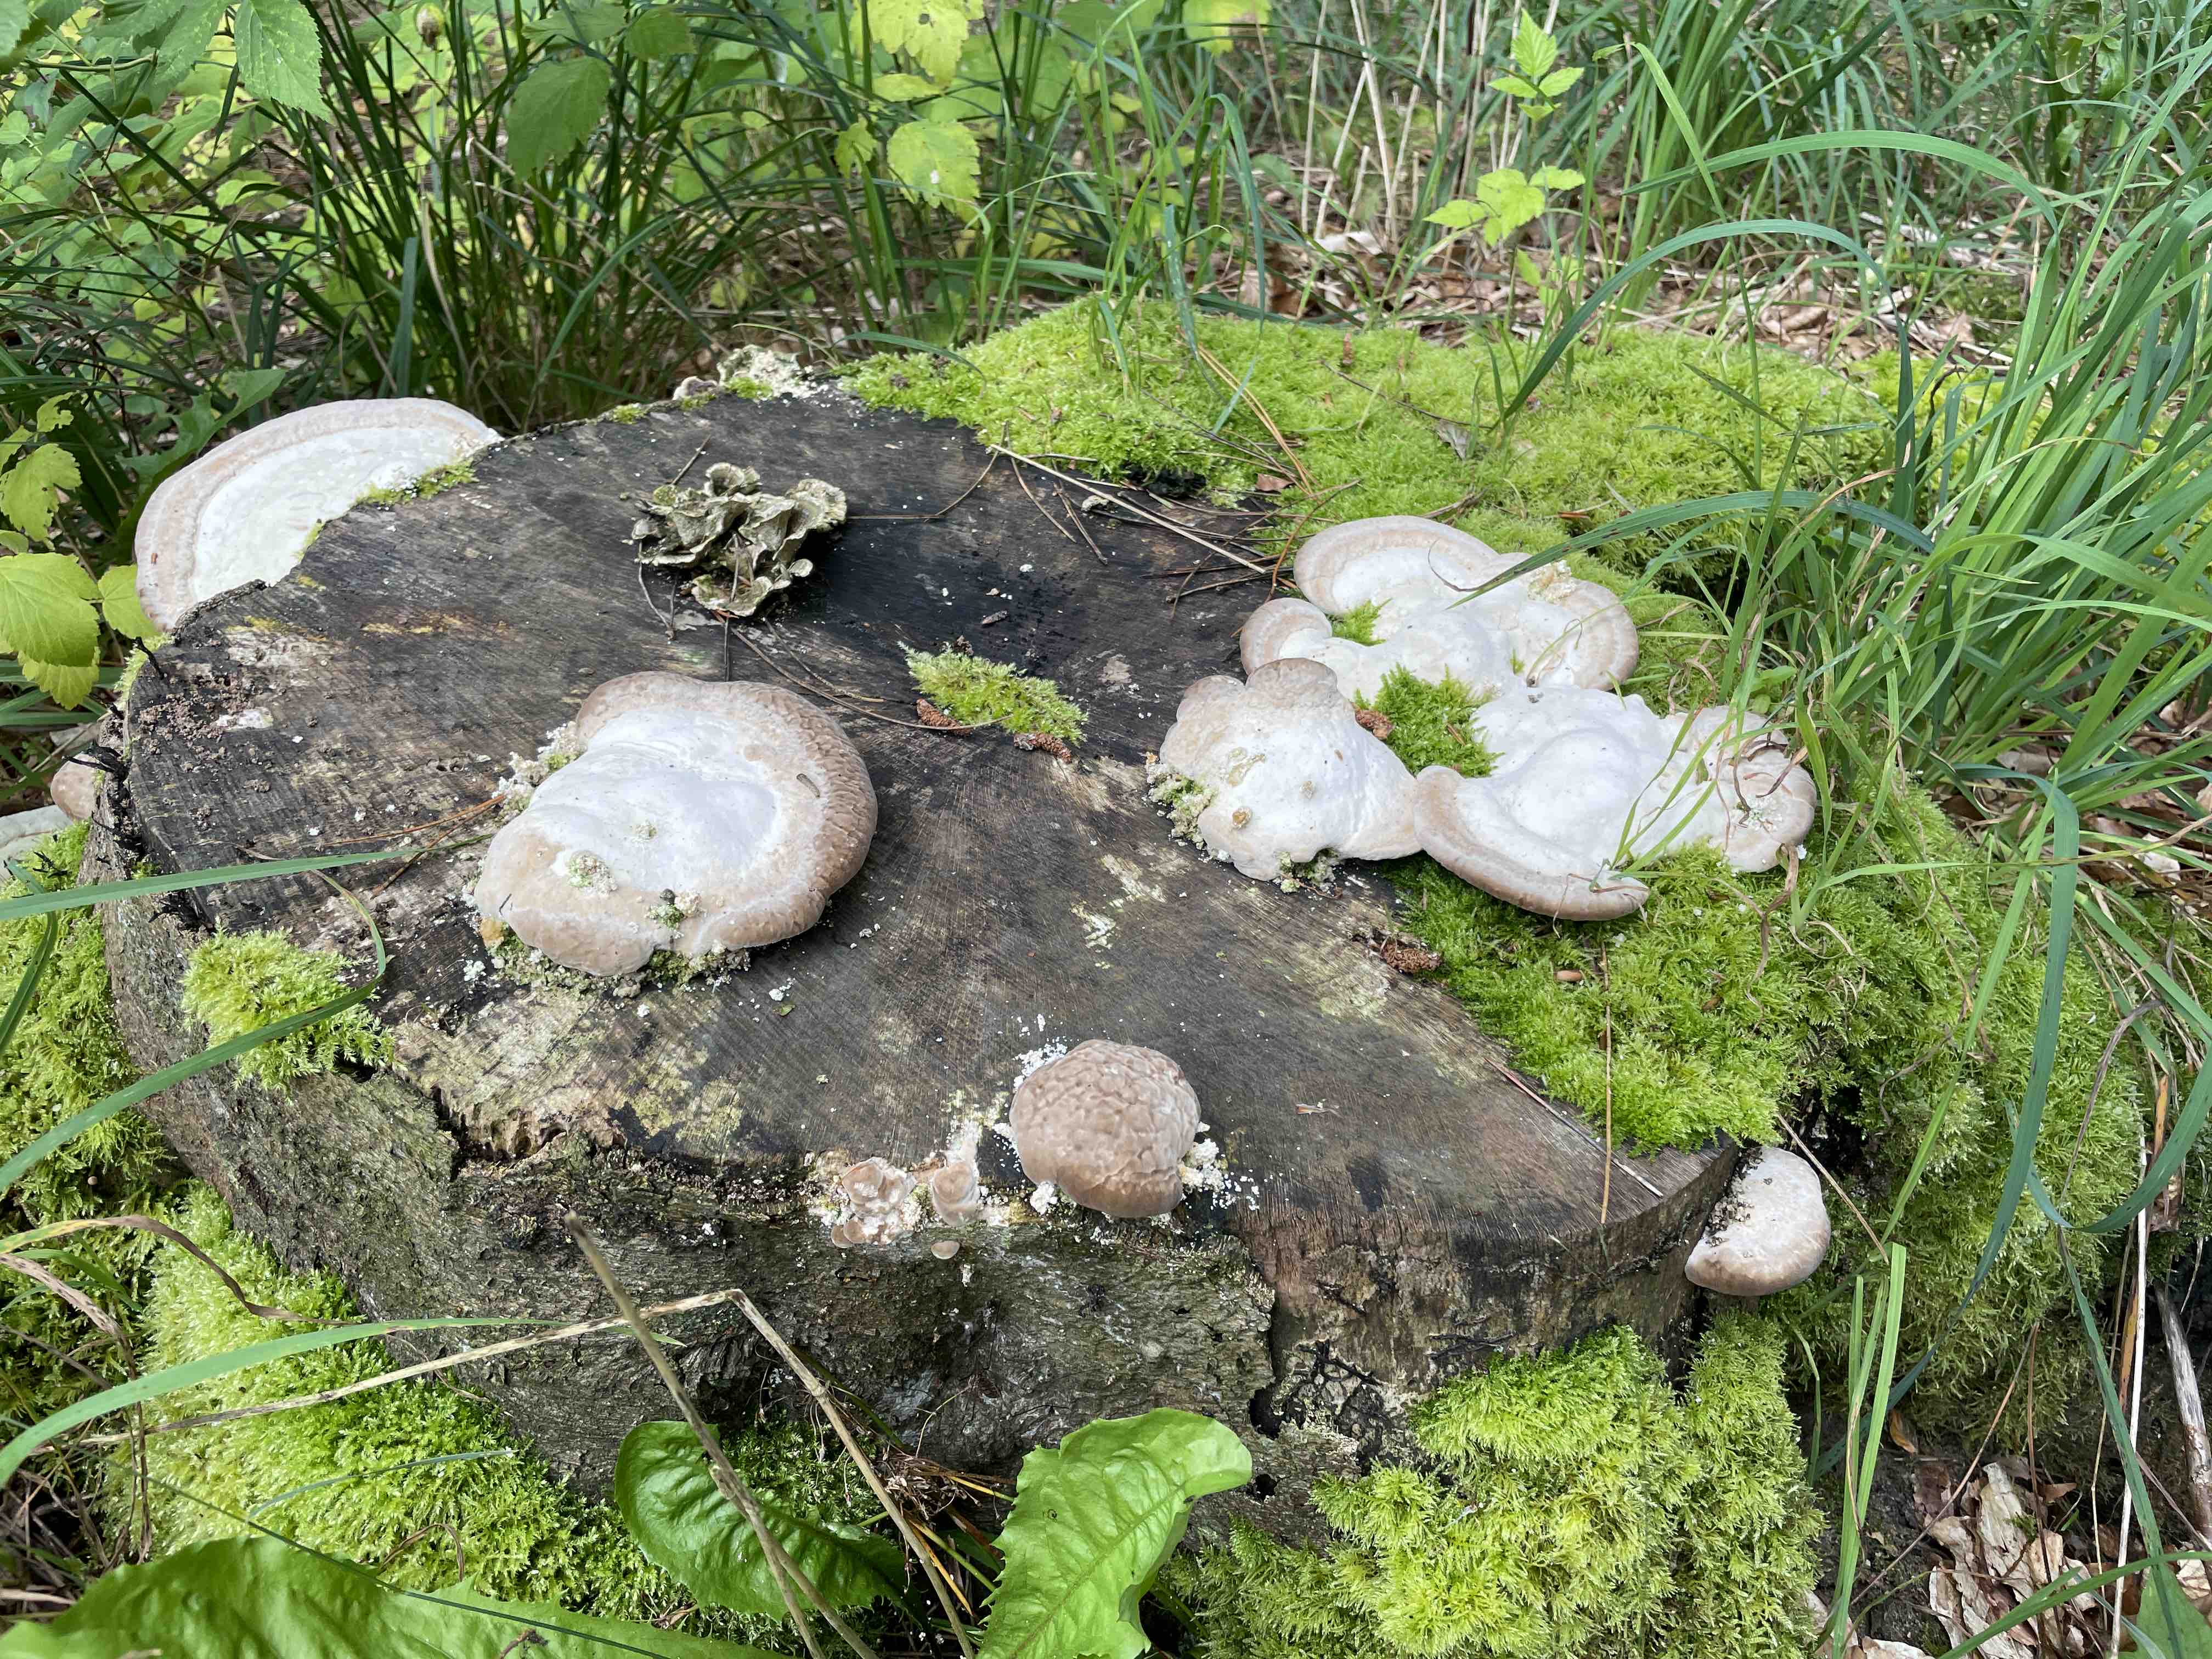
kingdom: Fungi
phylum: Basidiomycota
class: Agaricomycetes
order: Polyporales
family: Polyporaceae
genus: Trametes
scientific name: Trametes gibbosa
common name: puklet læderporesvamp
